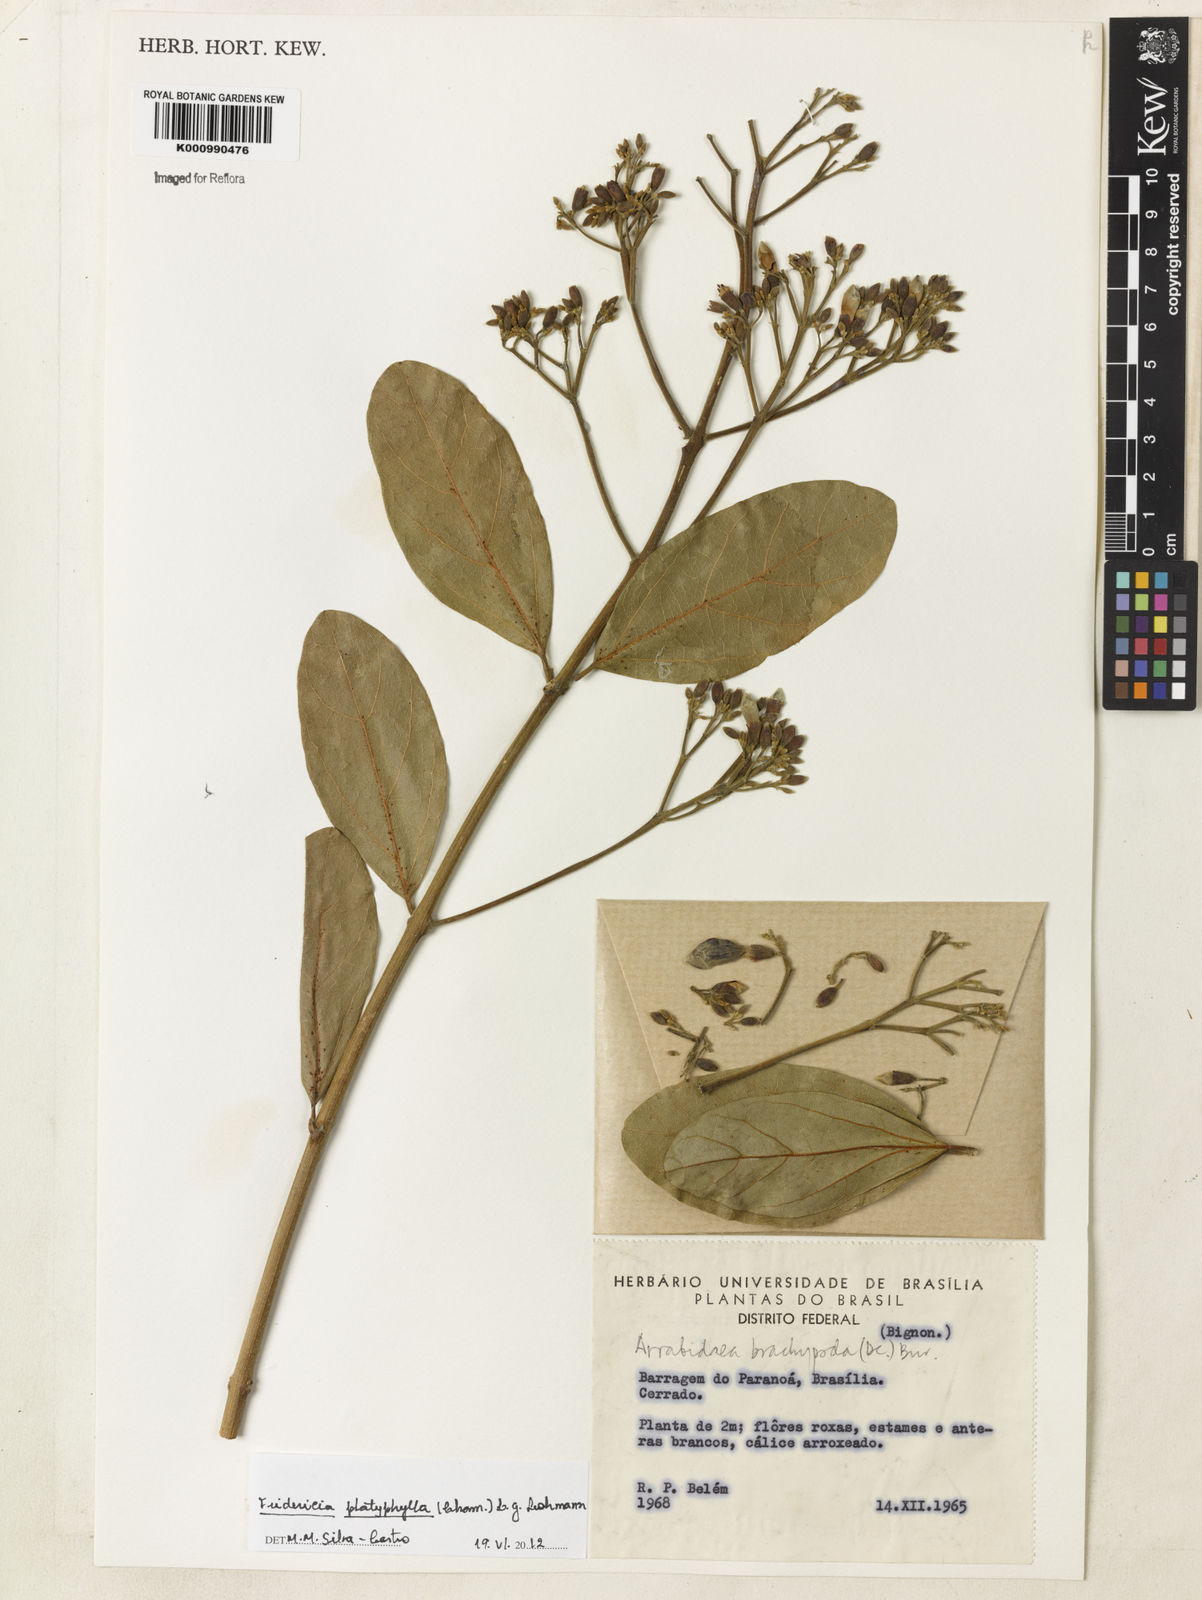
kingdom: Plantae
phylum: Tracheophyta
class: Magnoliopsida
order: Lamiales
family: Bignoniaceae
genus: Fridericia
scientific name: Fridericia platyphylla
